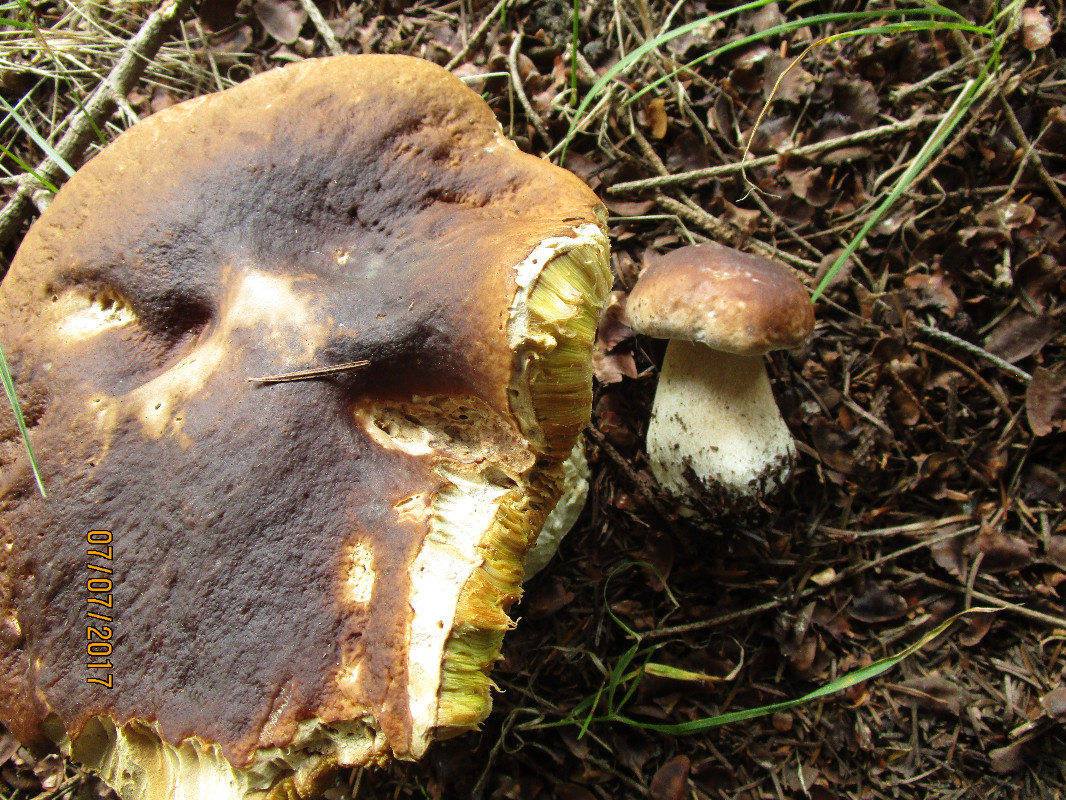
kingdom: Fungi
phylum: Basidiomycota
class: Agaricomycetes
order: Boletales
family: Boletaceae
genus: Boletus
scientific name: Boletus edulis
